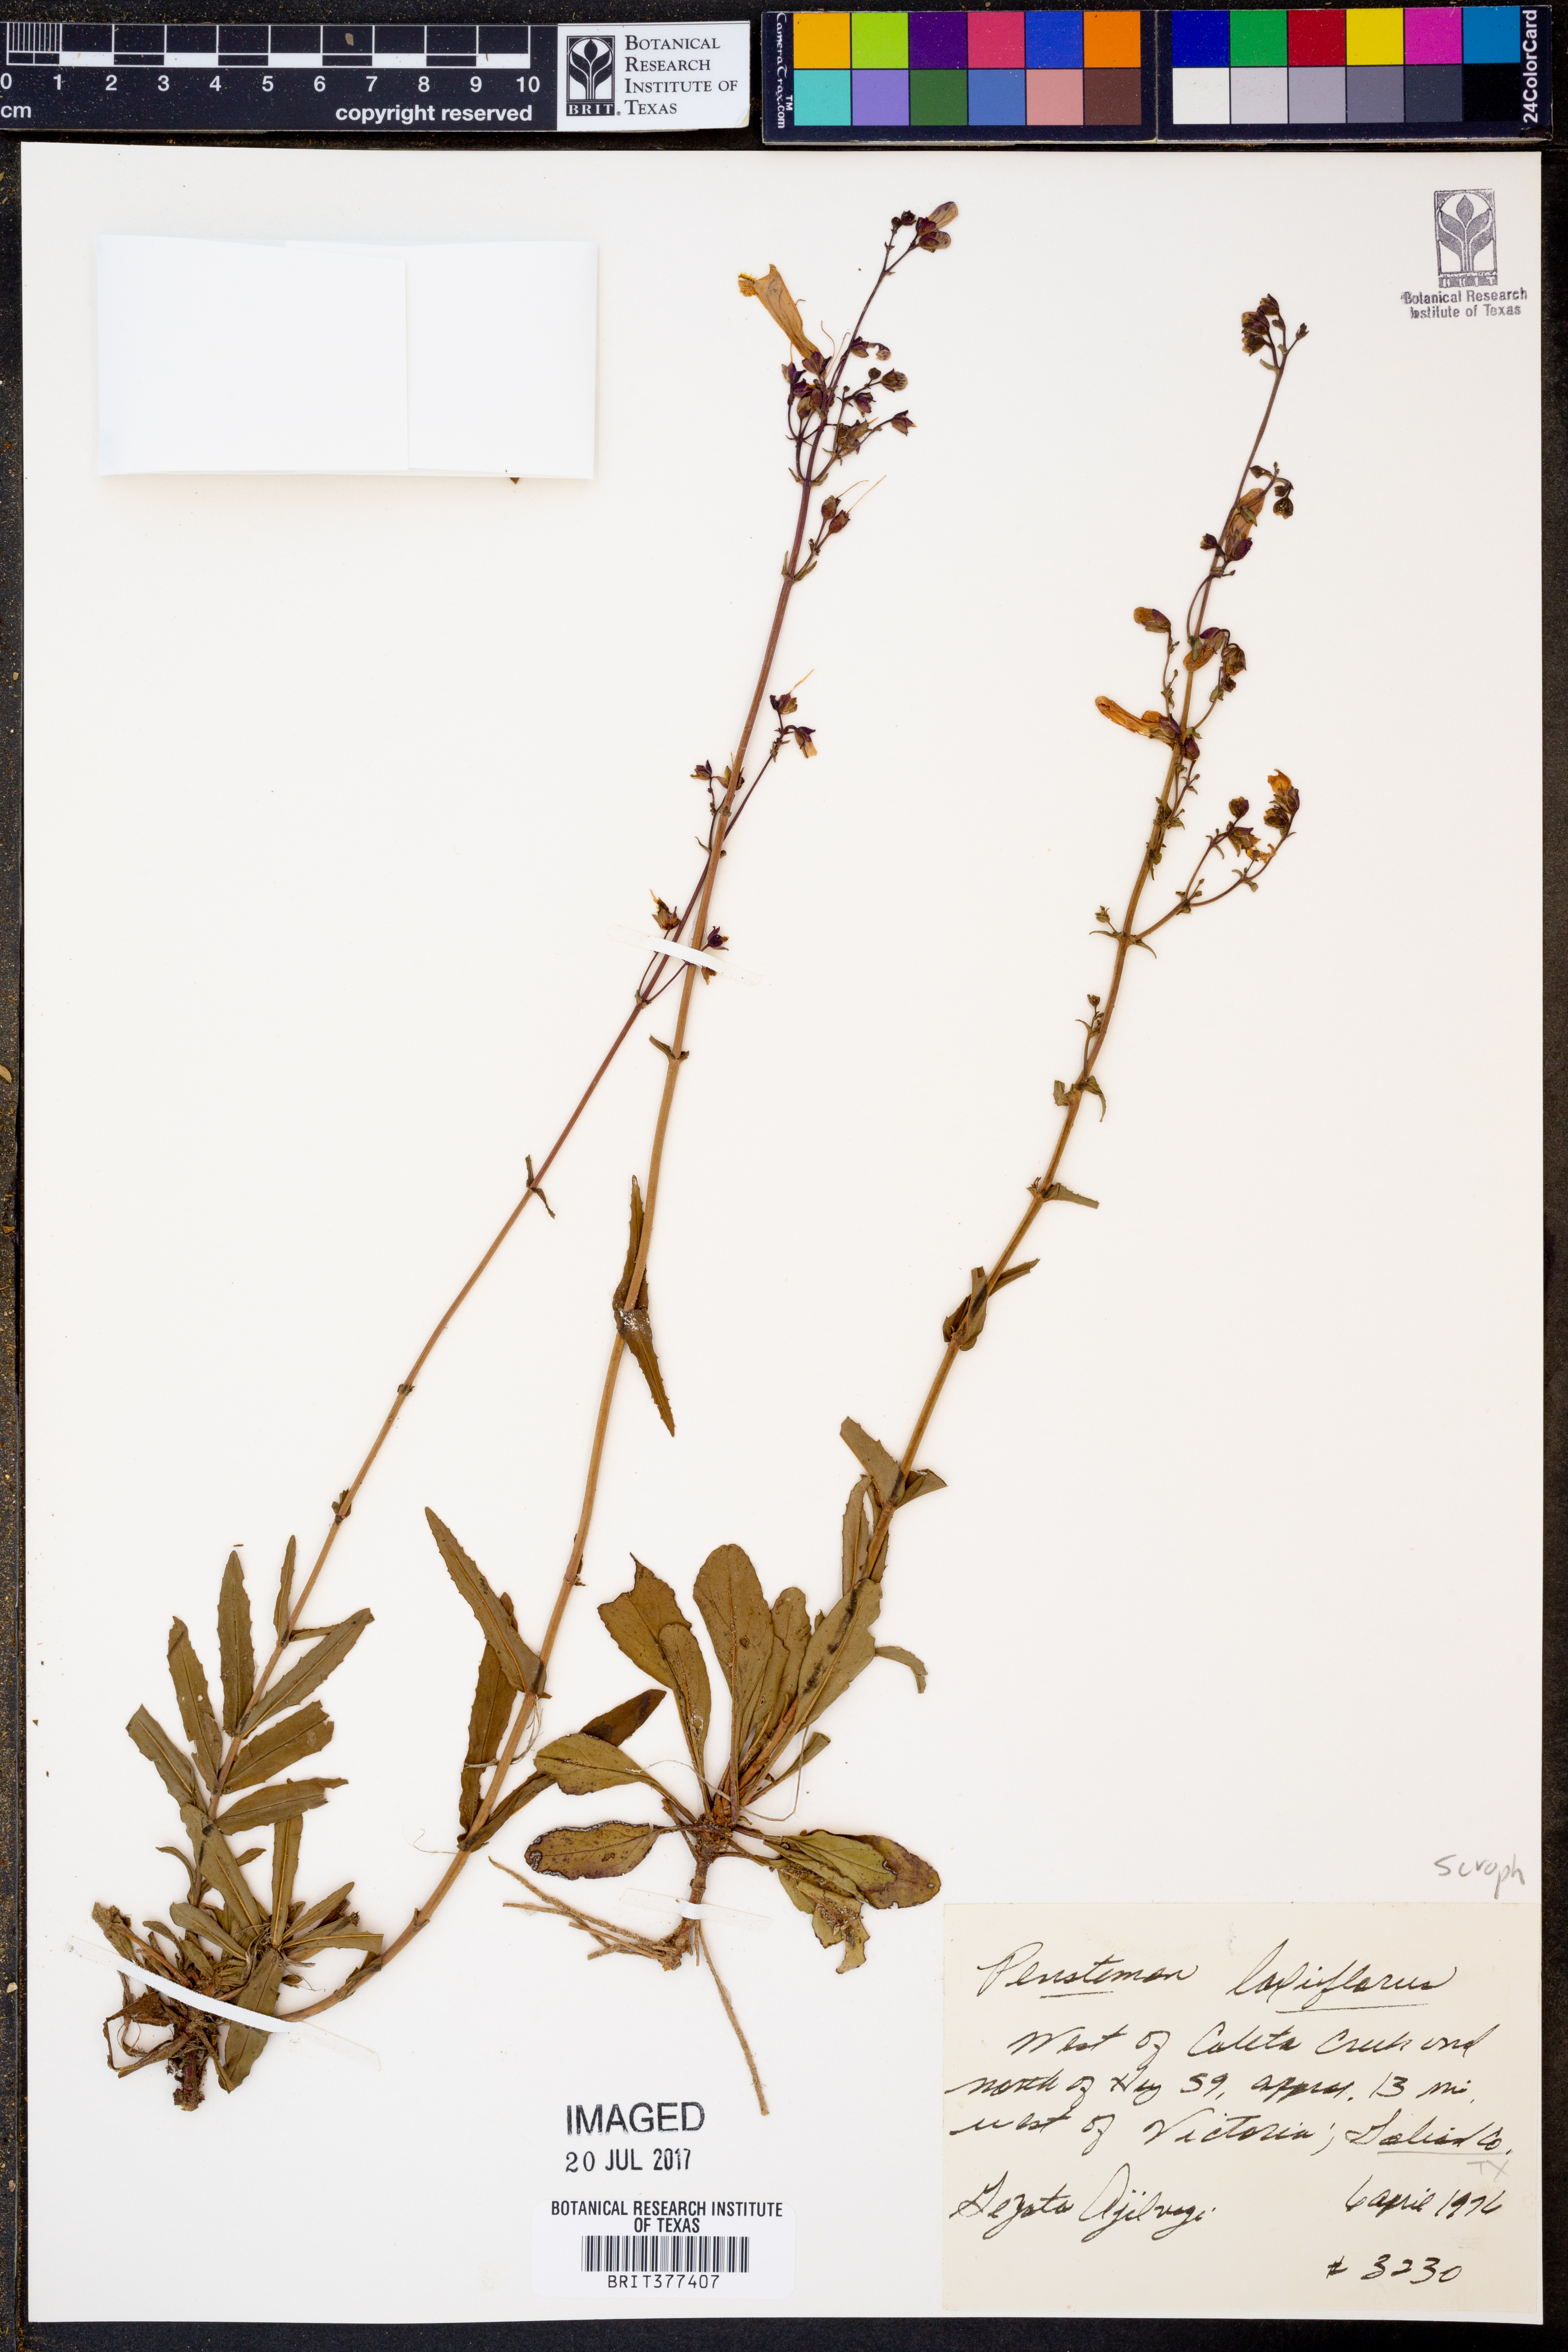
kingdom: Plantae
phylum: Tracheophyta
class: Magnoliopsida
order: Lamiales
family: Plantaginaceae
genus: Penstemon
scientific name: Penstemon laxiflorus
